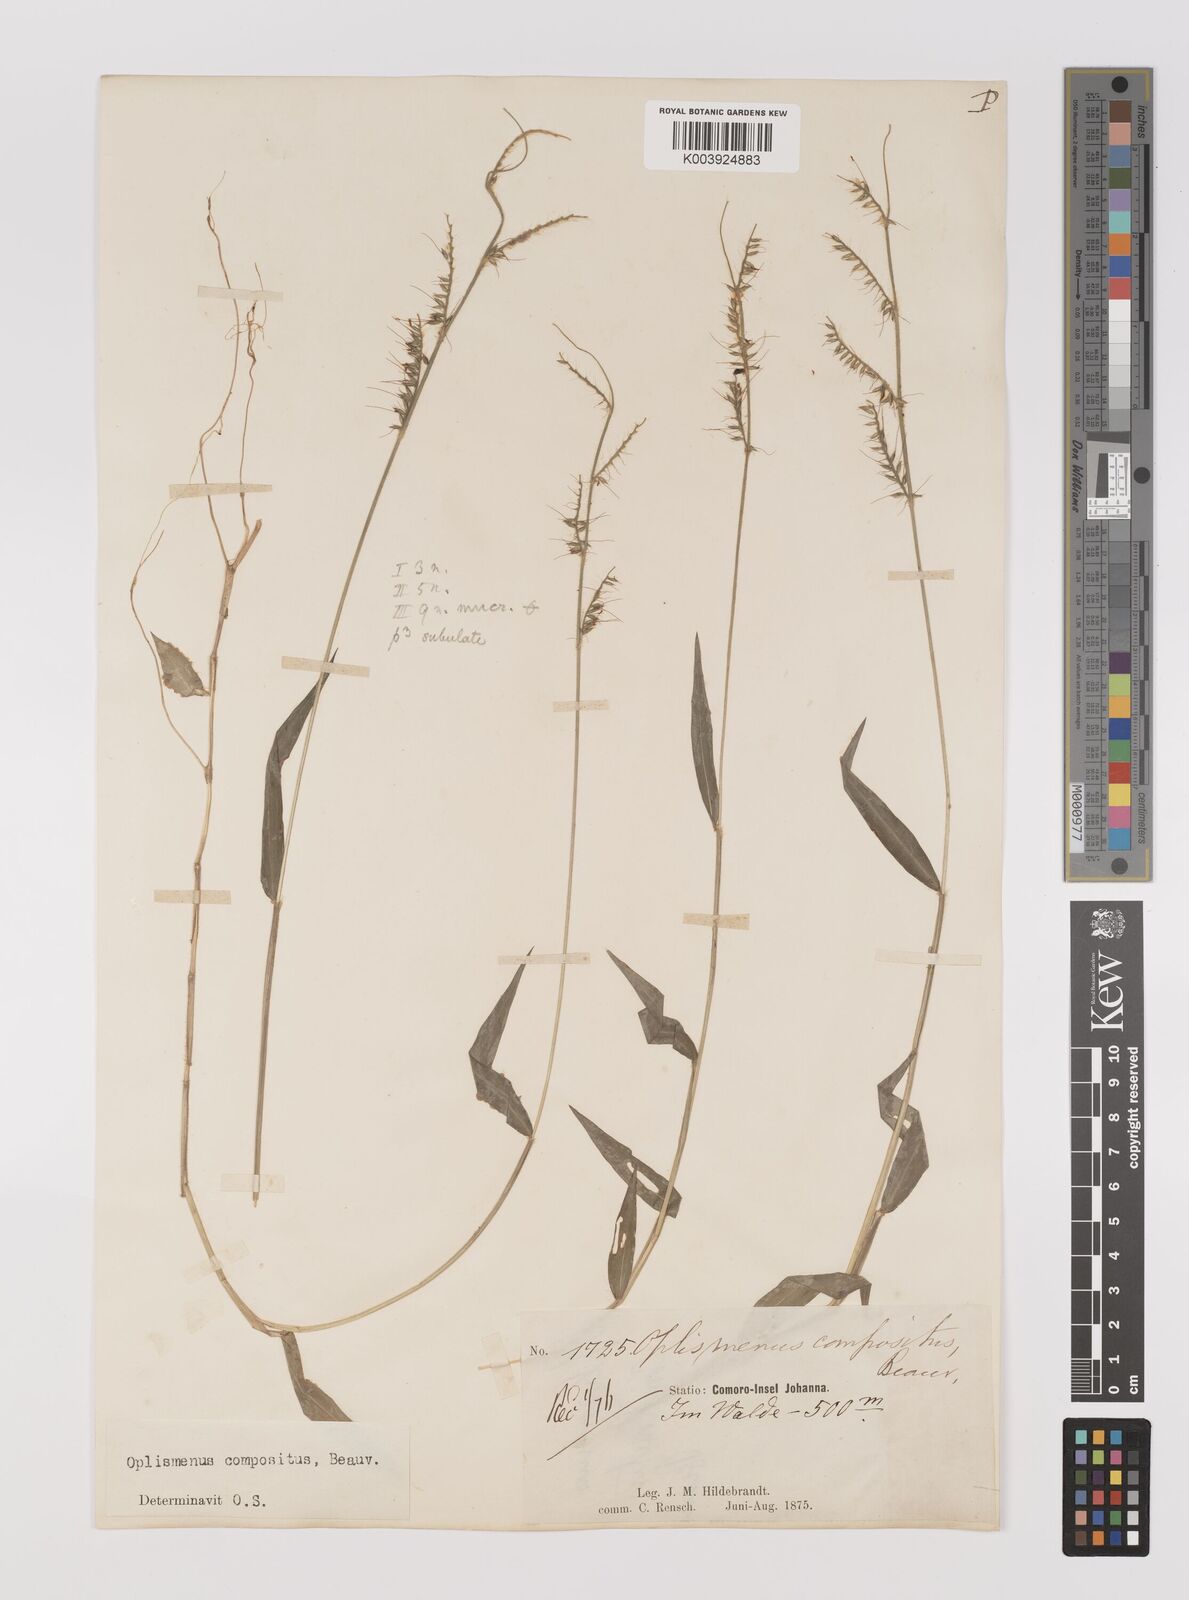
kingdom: Plantae
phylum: Tracheophyta
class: Liliopsida
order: Poales
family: Poaceae
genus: Oplismenus
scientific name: Oplismenus compositus
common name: Running mountain grass
